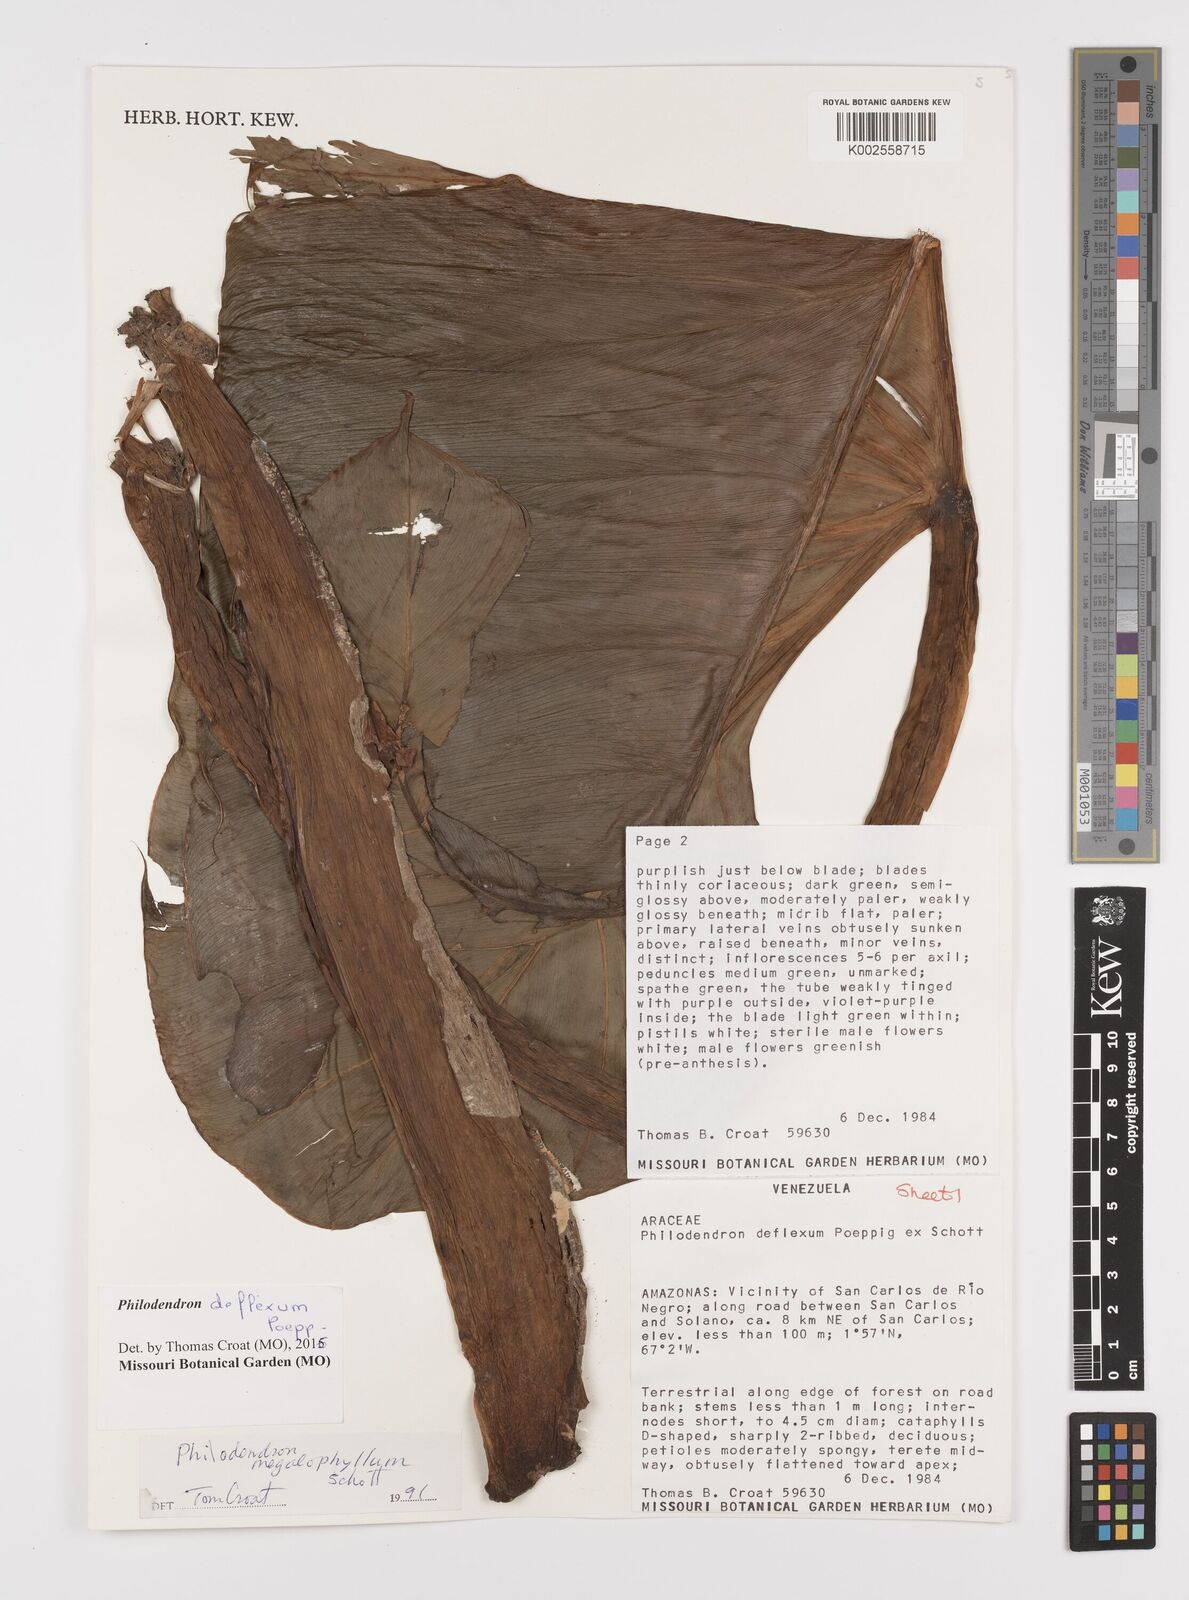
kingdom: Plantae
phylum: Tracheophyta
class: Liliopsida
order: Alismatales
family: Araceae
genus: Philodendron
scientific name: Philodendron deflexum
